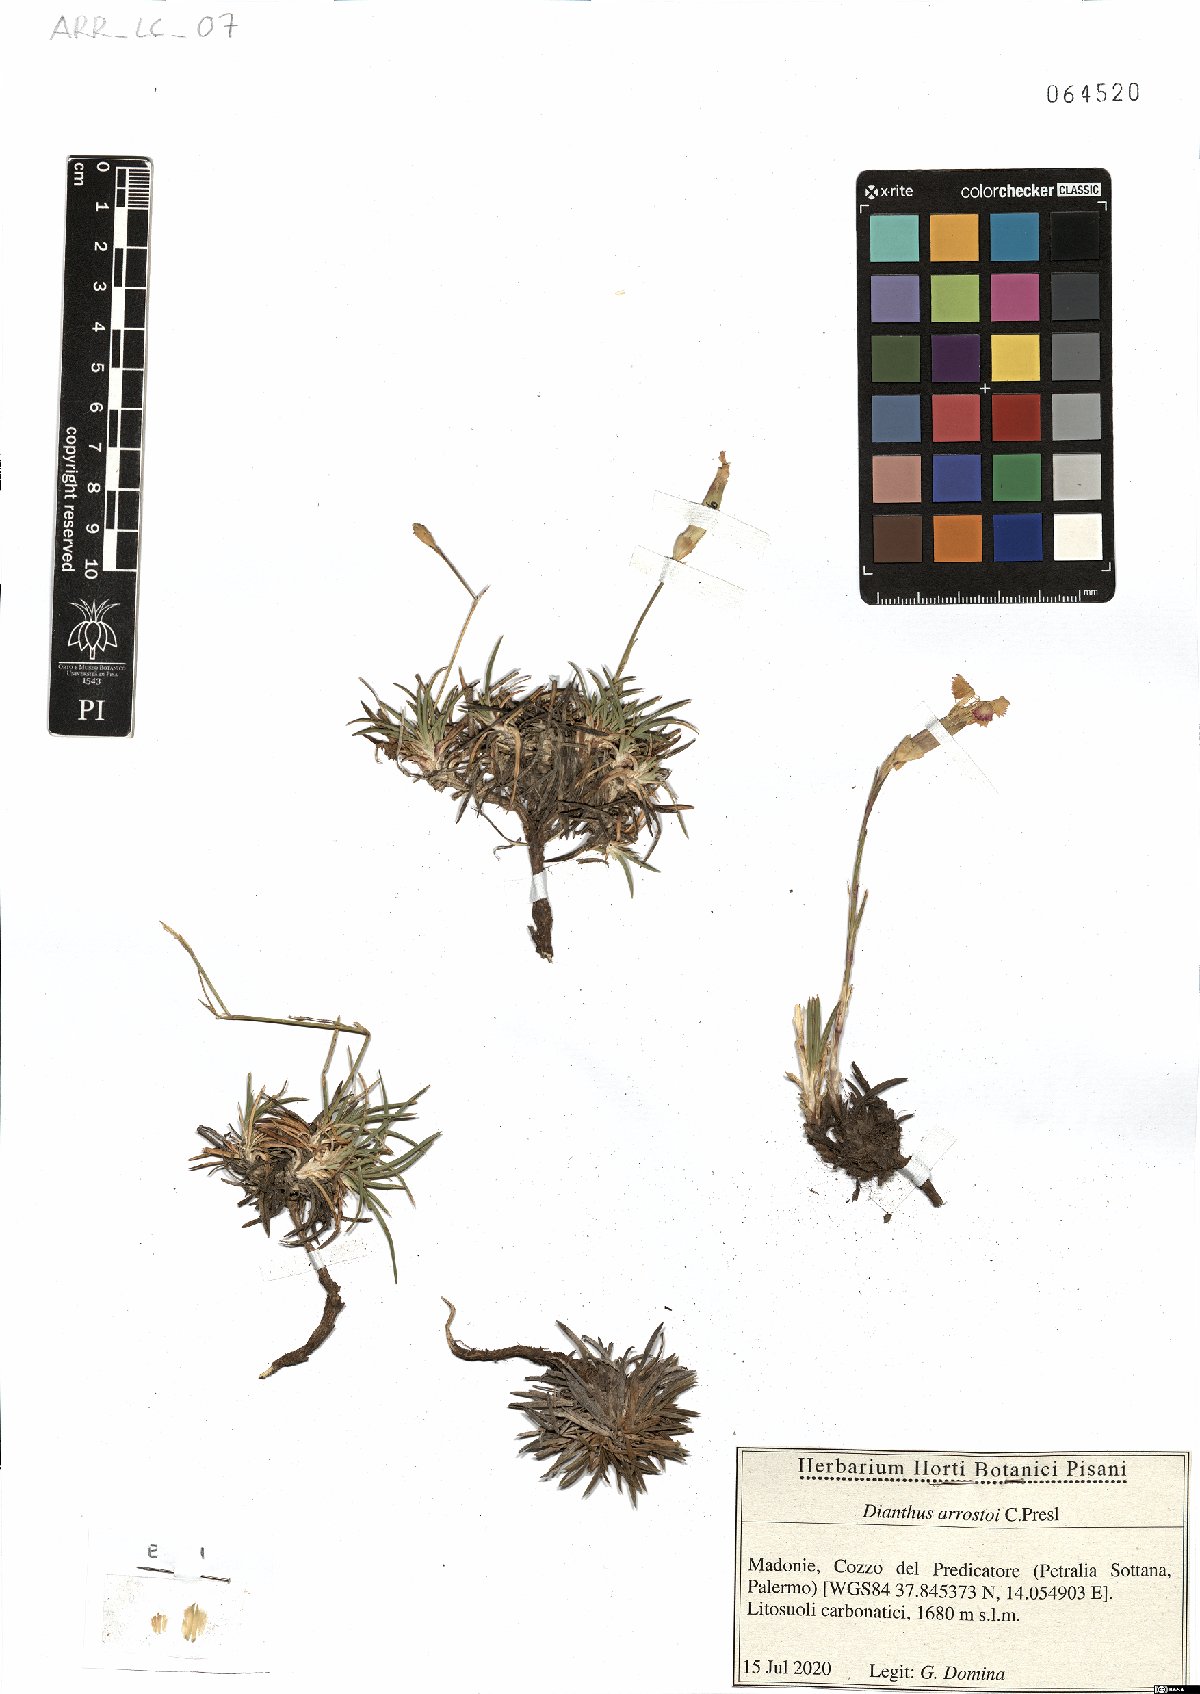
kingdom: Plantae
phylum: Tracheophyta
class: Magnoliopsida
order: Caryophyllales
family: Caryophyllaceae
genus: Dianthus
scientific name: Dianthus arrostoi
